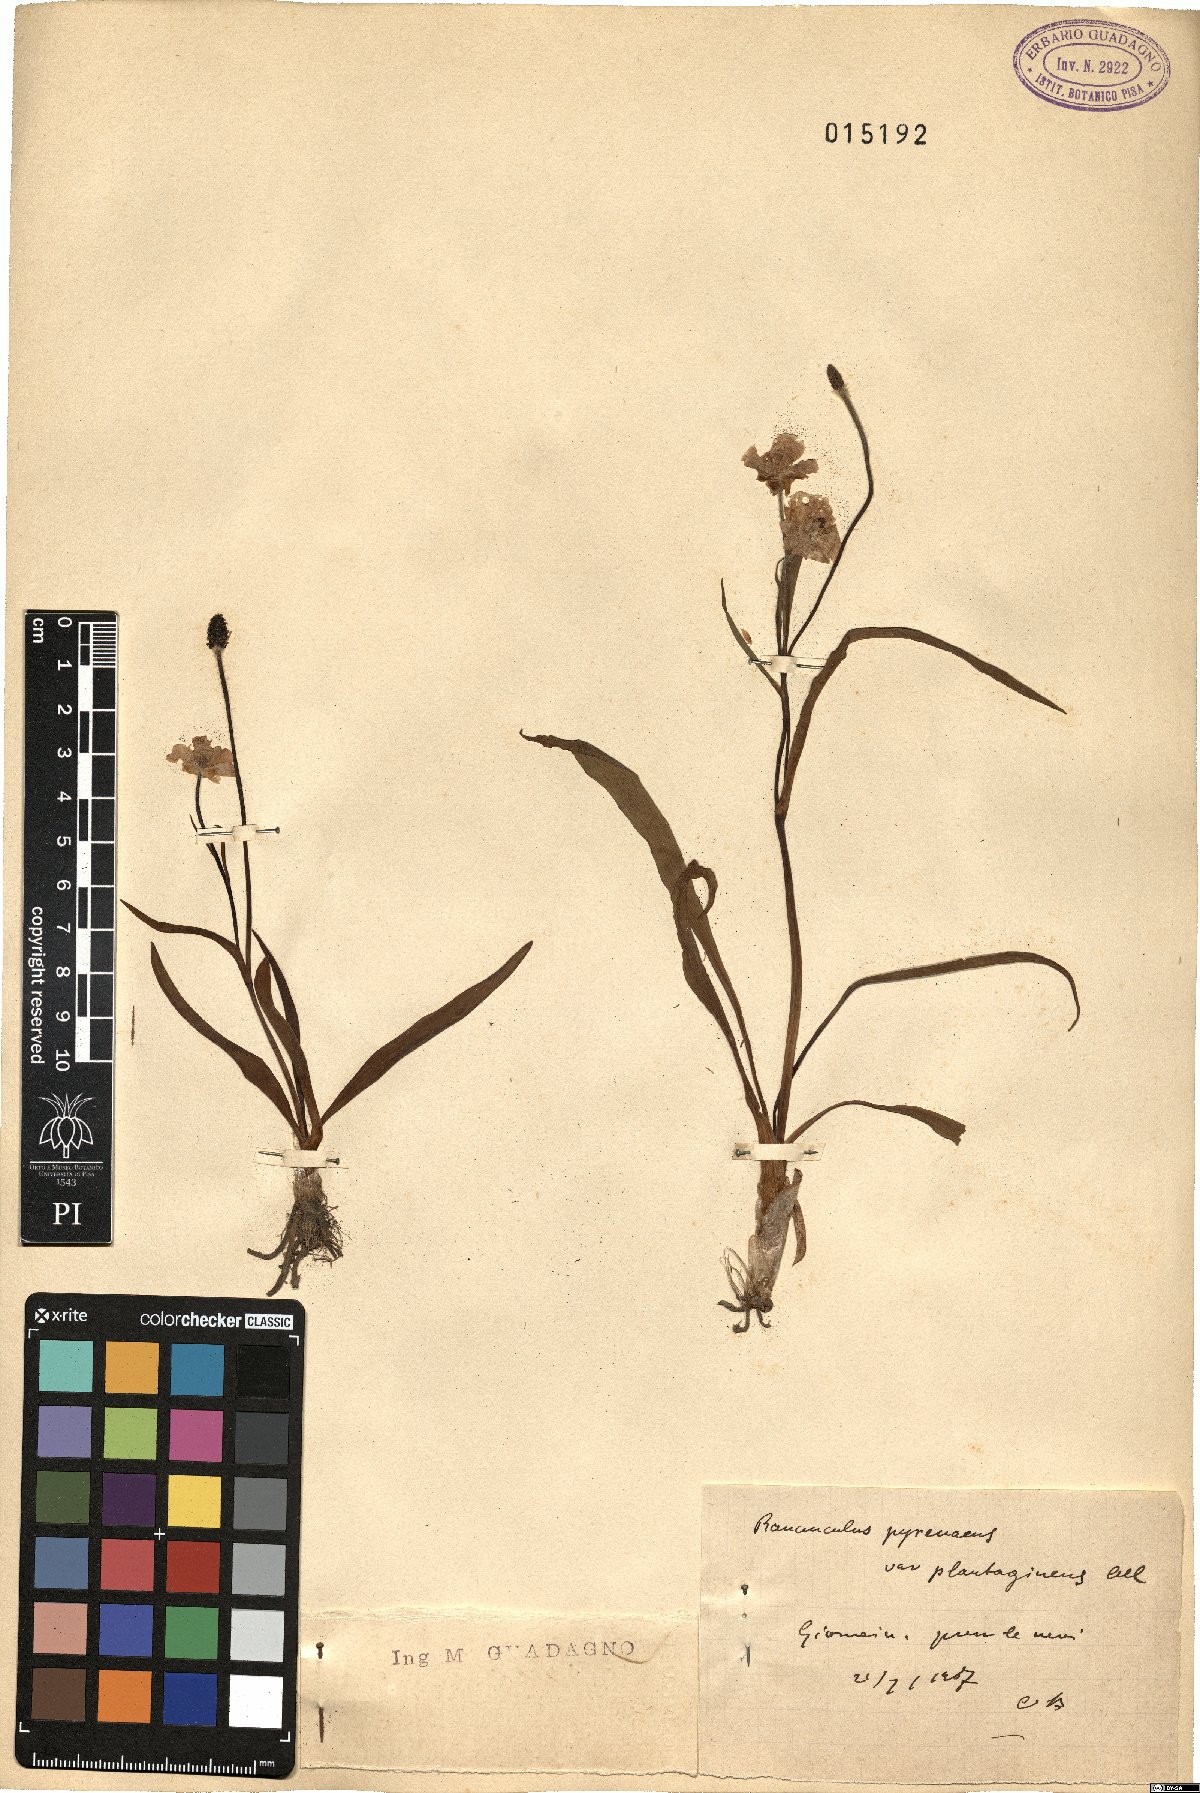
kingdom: Plantae
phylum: Tracheophyta
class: Magnoliopsida
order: Ranunculales
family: Ranunculaceae
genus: Ranunculus
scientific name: Ranunculus pyrenaeus
